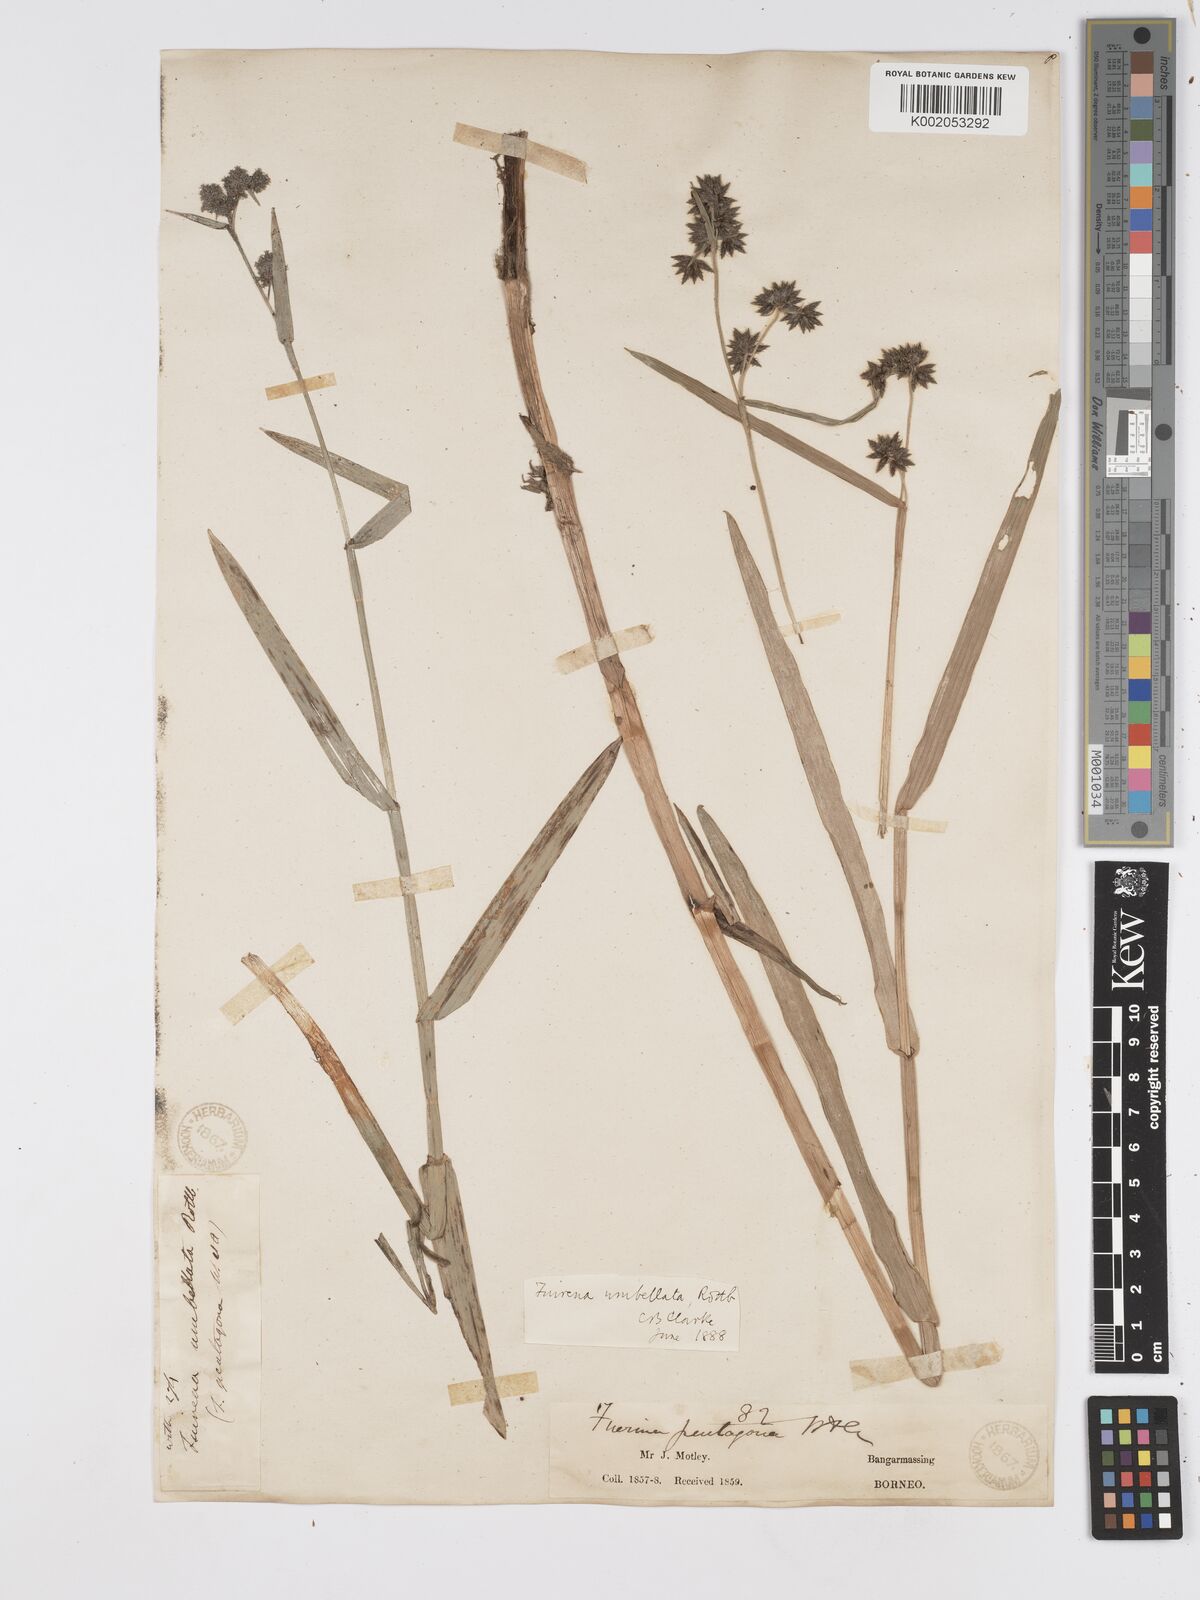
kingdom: Plantae
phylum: Tracheophyta
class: Liliopsida
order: Poales
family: Cyperaceae
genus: Fuirena
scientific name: Fuirena umbellata
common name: Yefen
